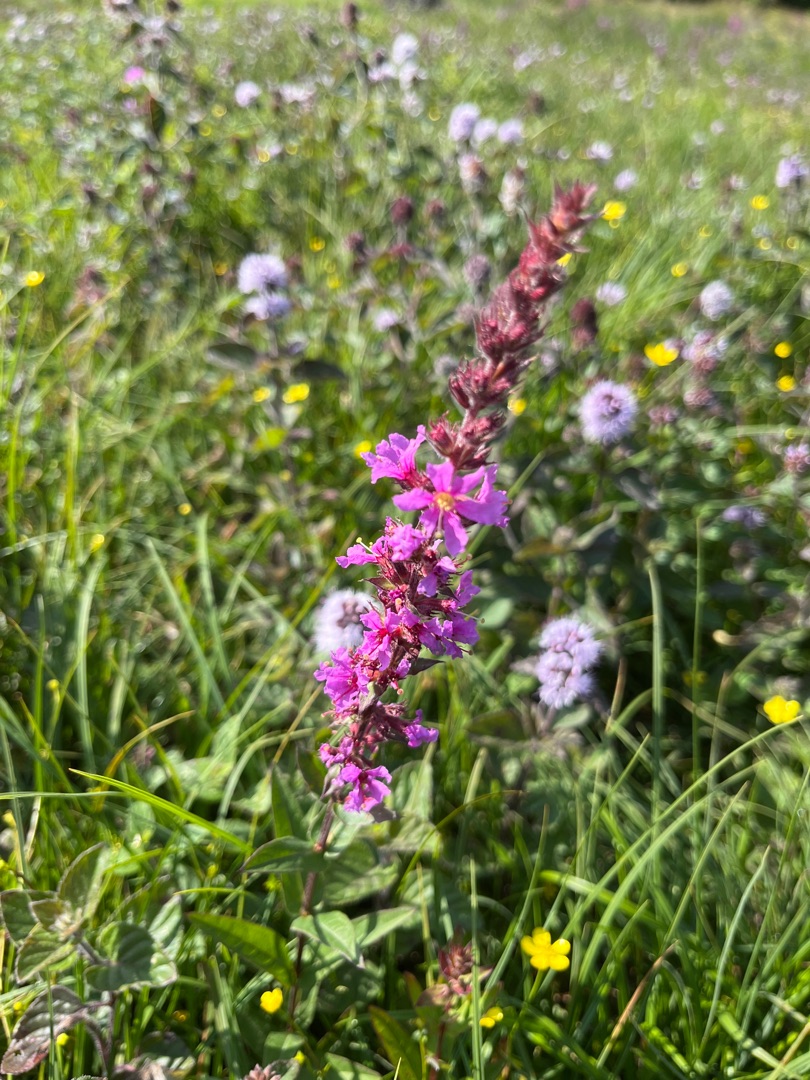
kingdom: Plantae
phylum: Tracheophyta
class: Magnoliopsida
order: Myrtales
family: Lythraceae
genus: Lythrum
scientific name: Lythrum salicaria
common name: Kattehale
